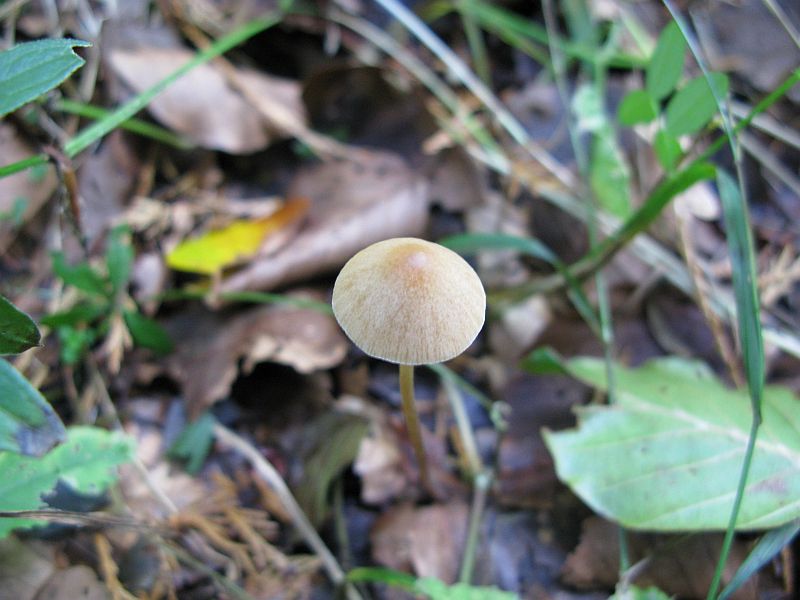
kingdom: Fungi
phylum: Basidiomycota
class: Agaricomycetes
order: Agaricales
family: Bolbitiaceae
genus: Conocybe
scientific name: Conocybe subpallida
